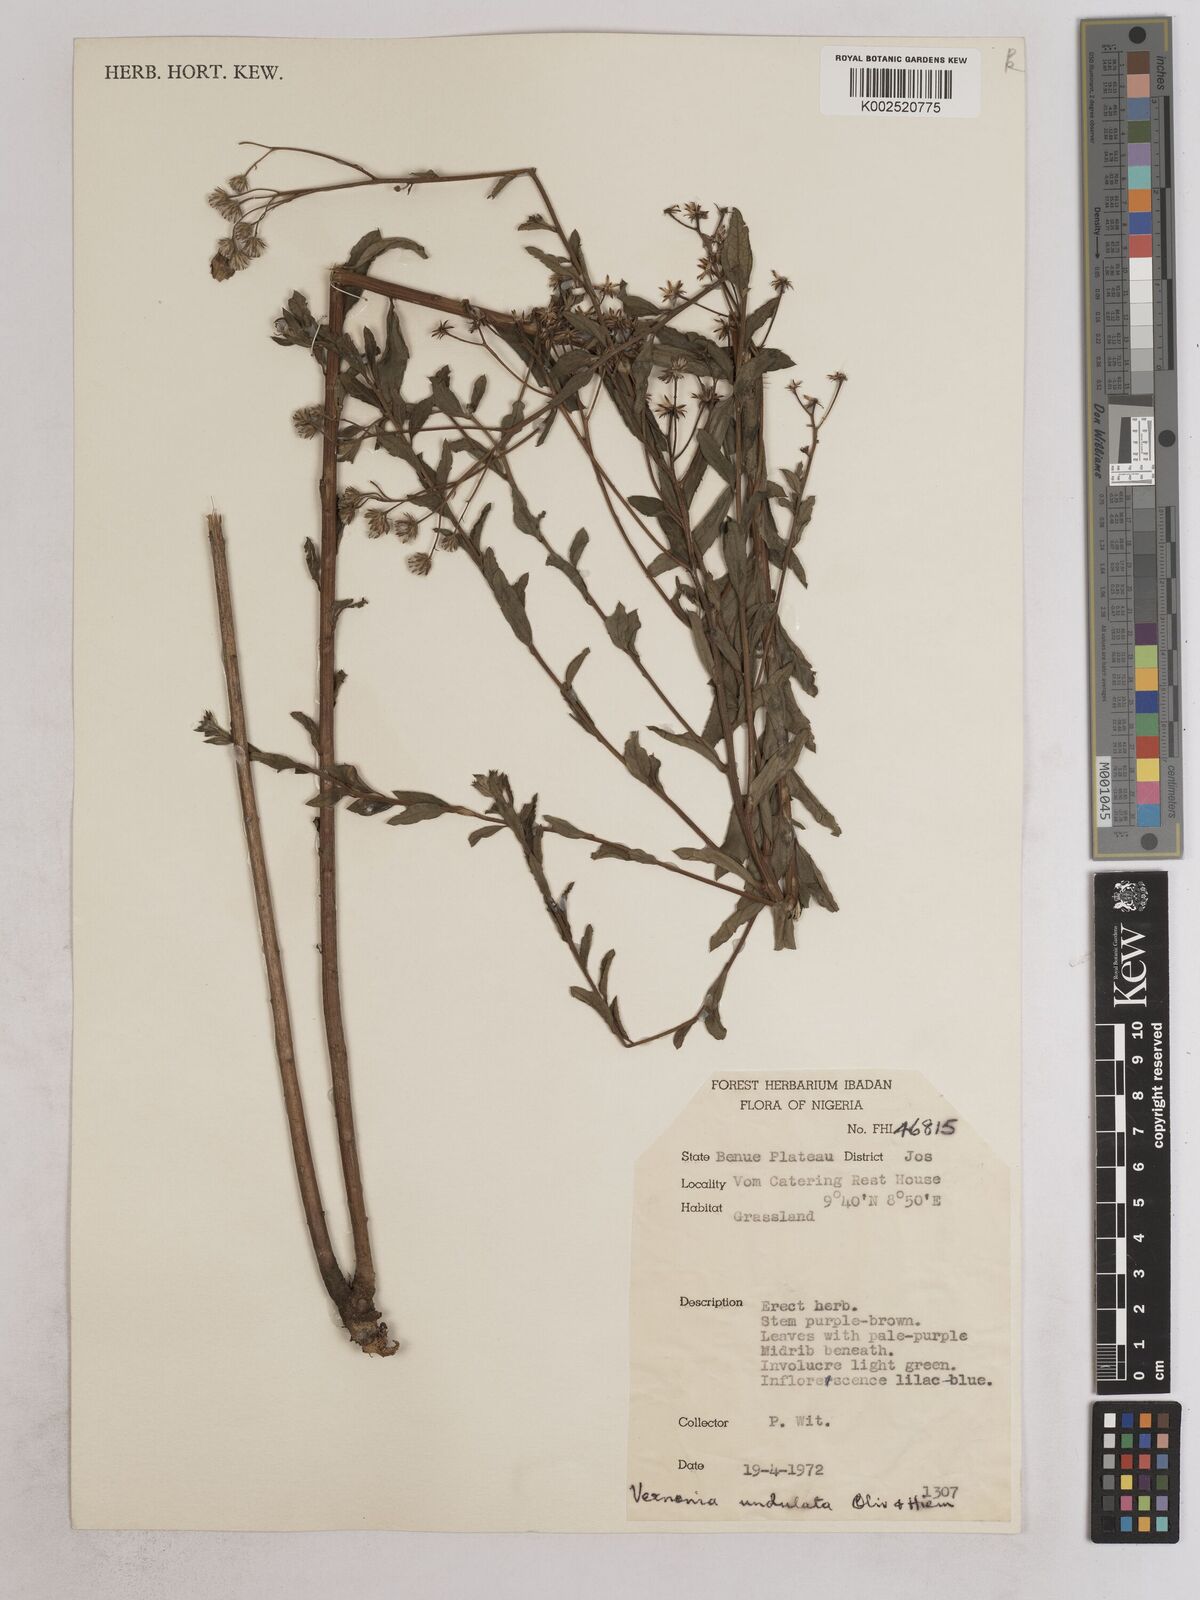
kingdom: Plantae
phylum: Tracheophyta
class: Magnoliopsida
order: Asterales
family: Asteraceae
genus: Vernonia
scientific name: Vernonia golungensis
